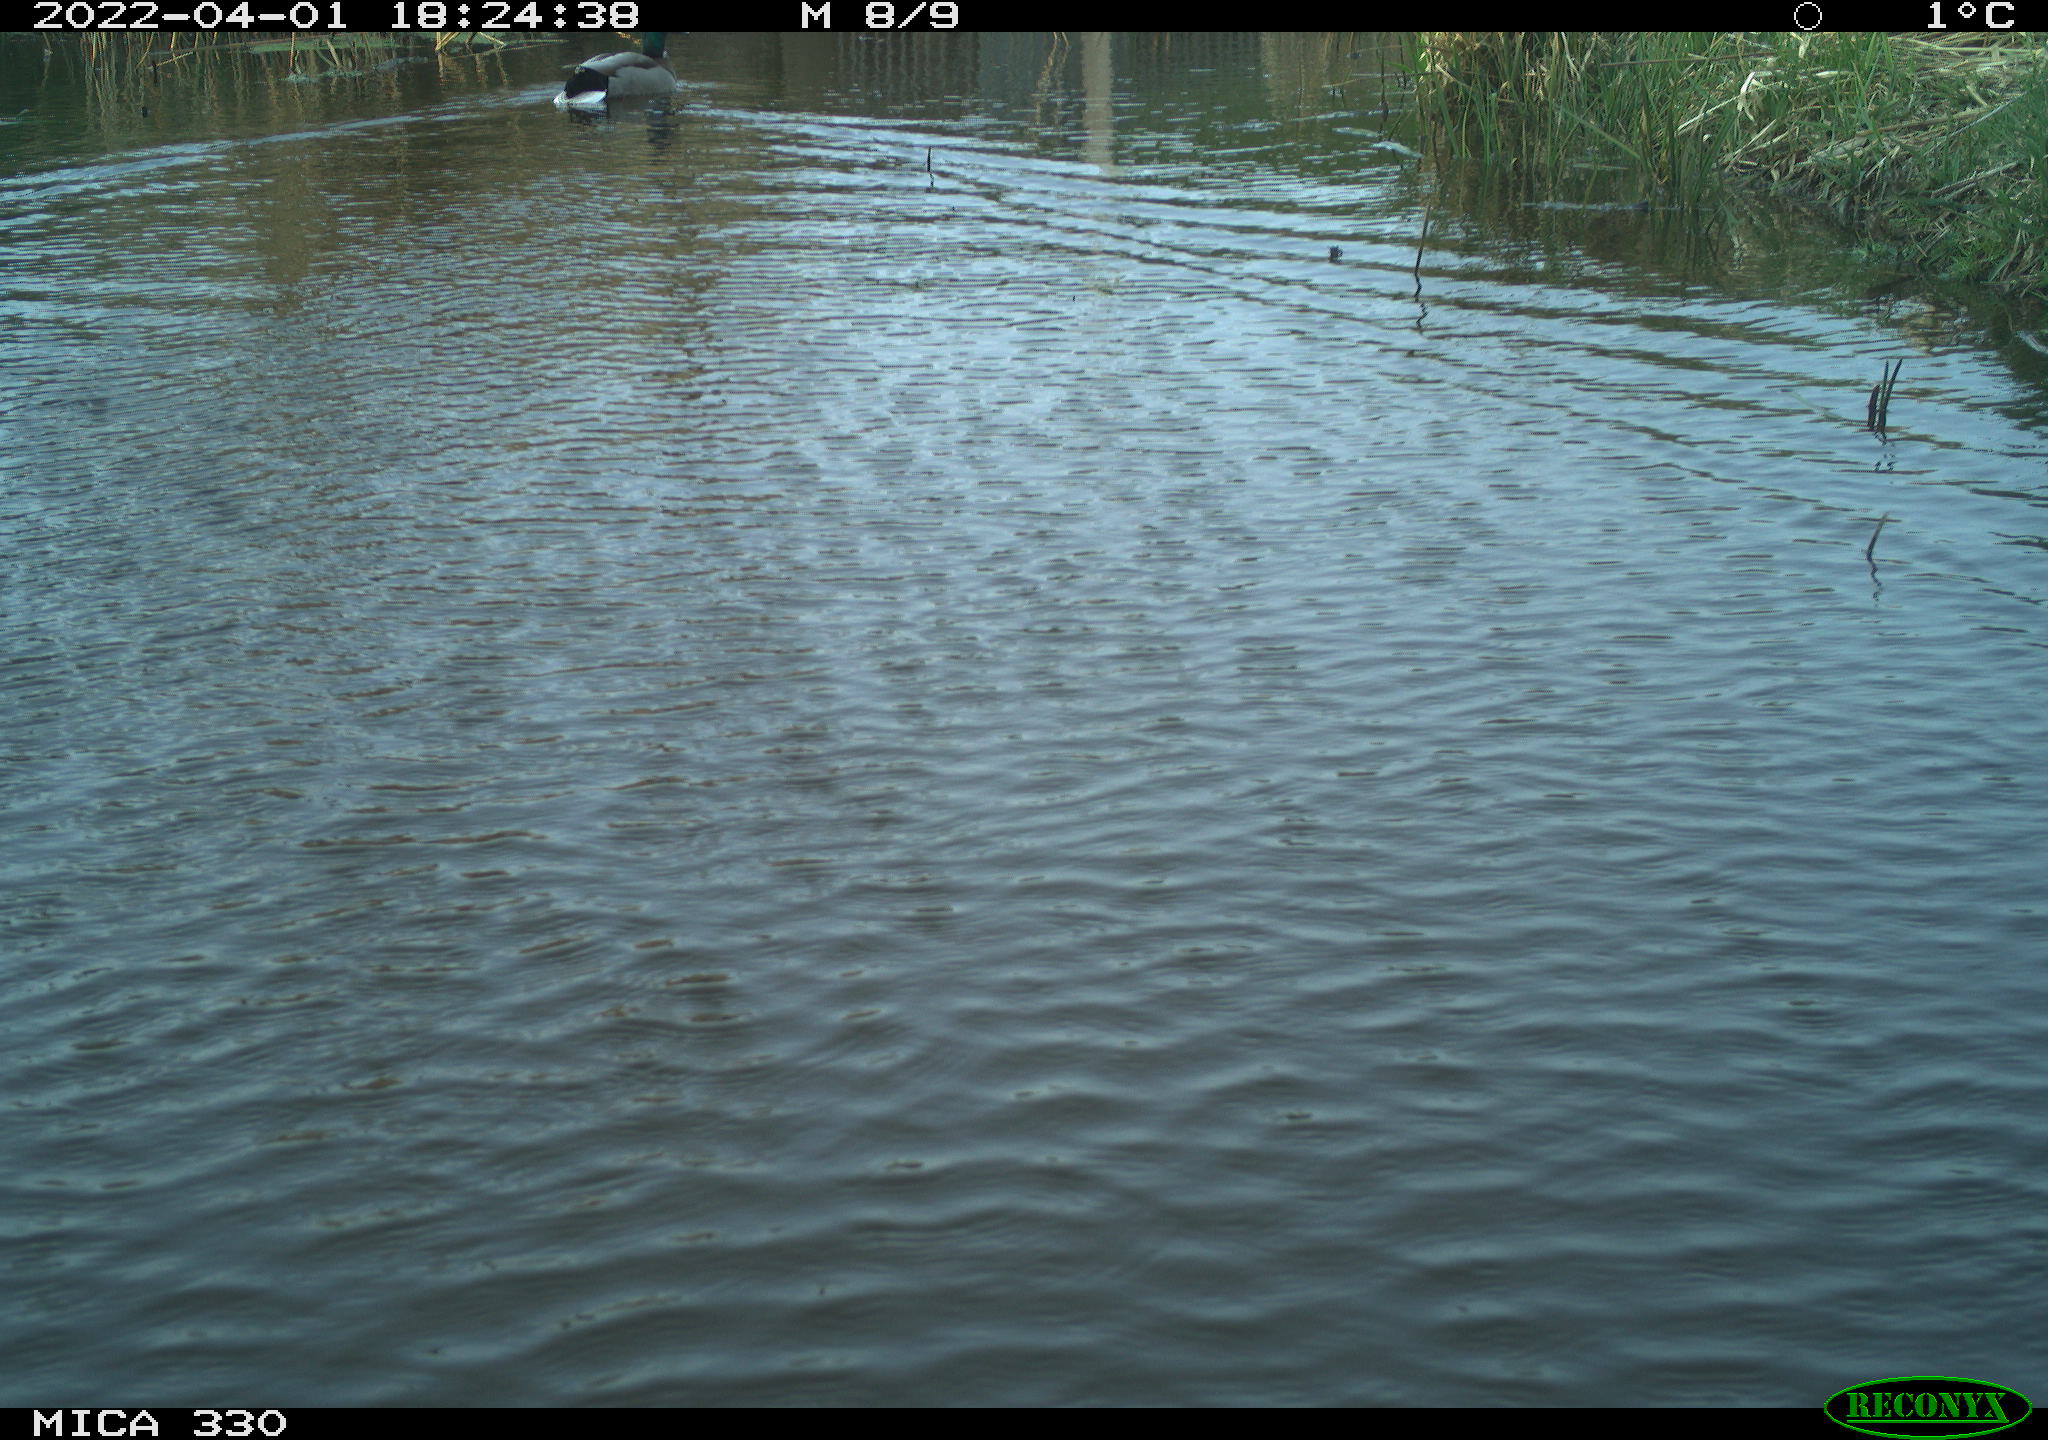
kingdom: Animalia
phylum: Chordata
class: Aves
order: Anseriformes
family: Anatidae
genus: Anas
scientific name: Anas platyrhynchos
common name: Mallard
